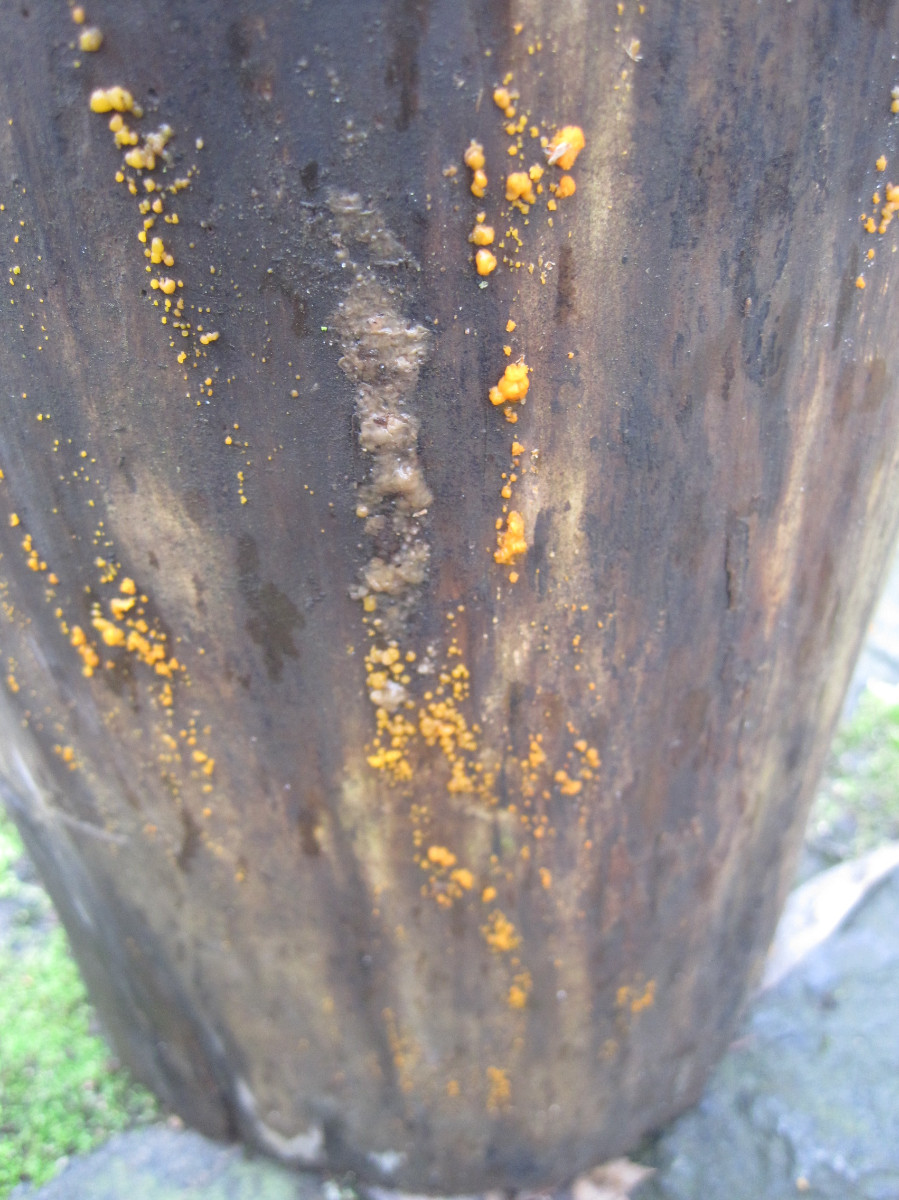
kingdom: Fungi
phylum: Basidiomycota
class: Dacrymycetes
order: Dacrymycetales
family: Dacrymycetaceae
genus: Dacrymyces
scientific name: Dacrymyces stillatus
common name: almindelig tåresvamp
